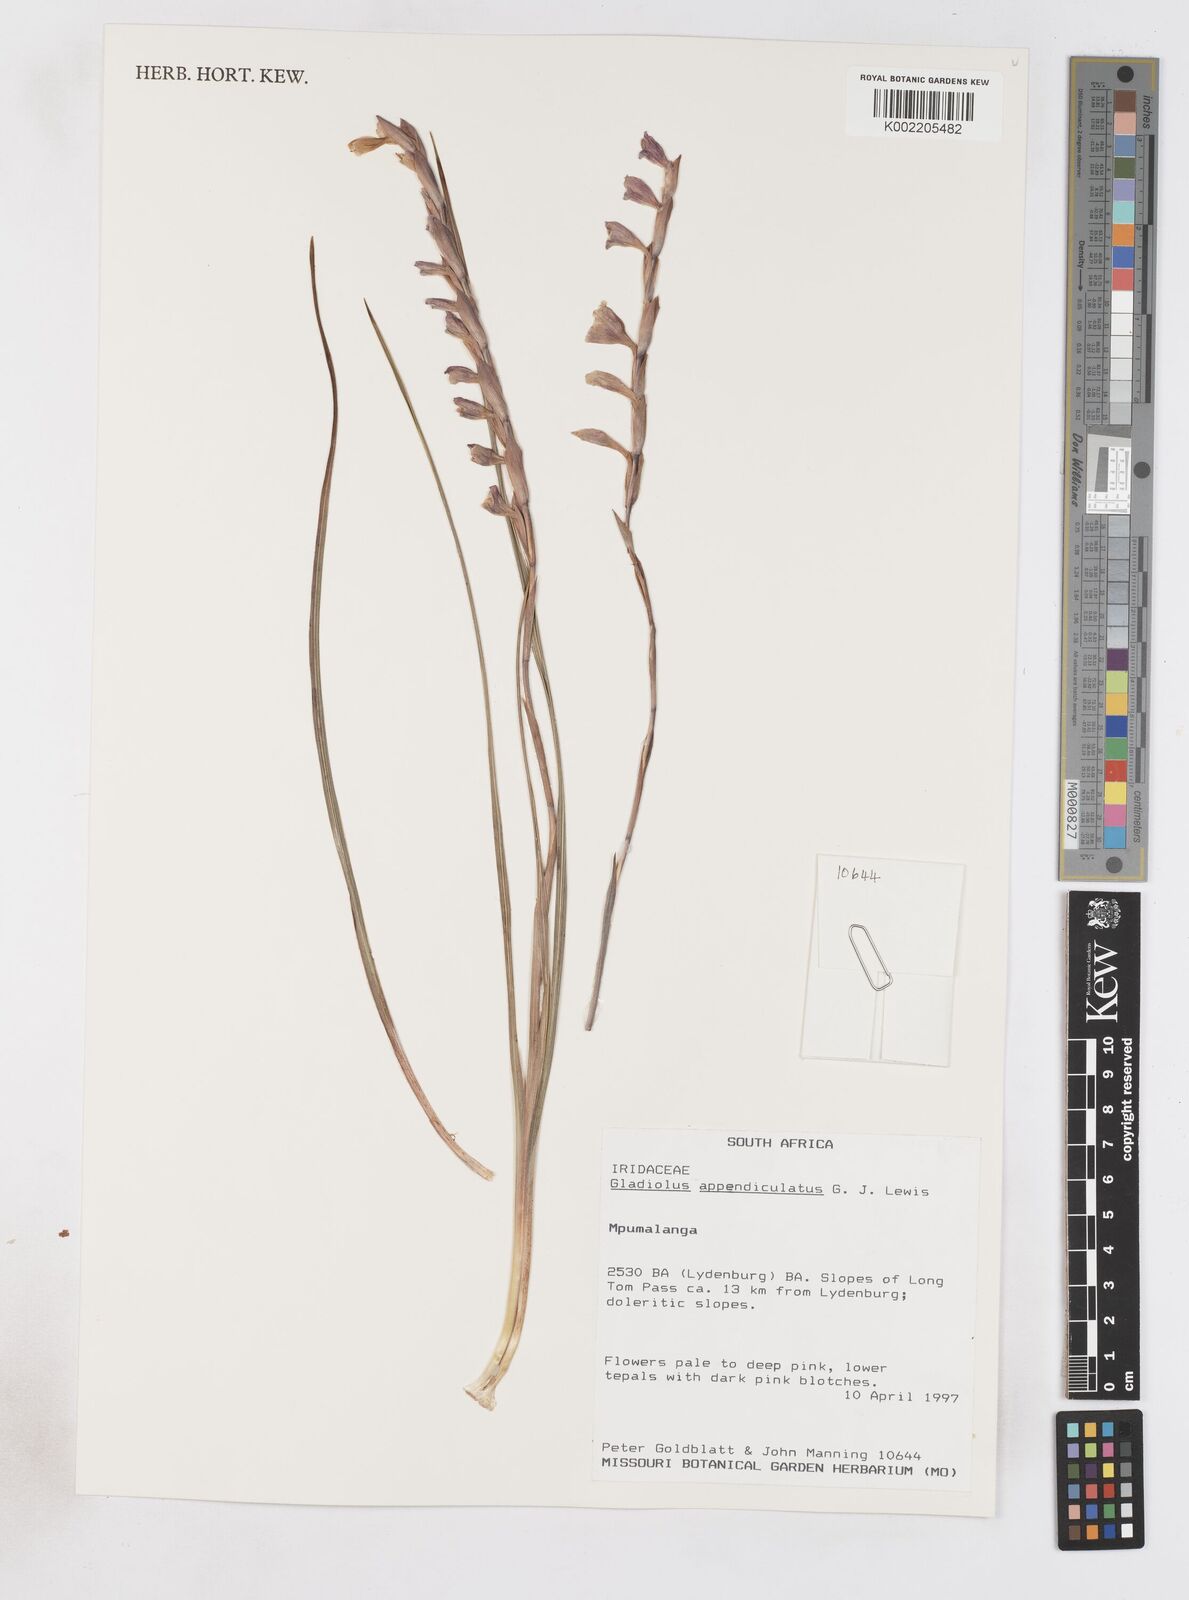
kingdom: Plantae
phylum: Tracheophyta
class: Liliopsida
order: Asparagales
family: Iridaceae
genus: Gladiolus
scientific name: Gladiolus appendiculatus
